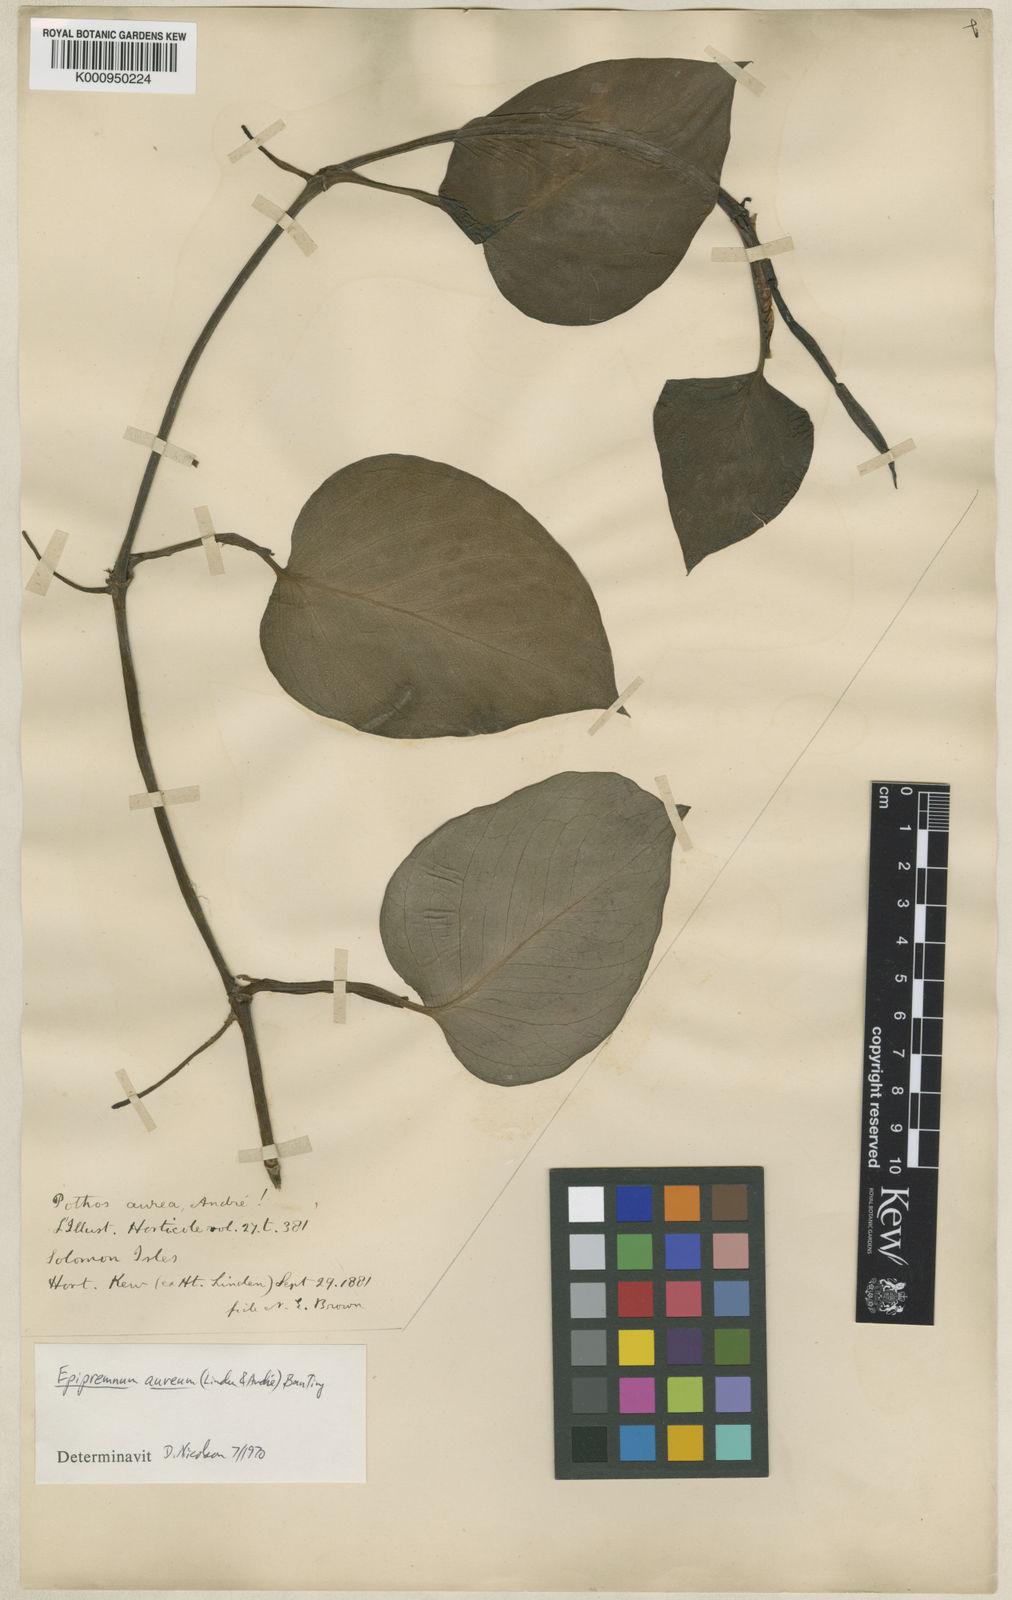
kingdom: Plantae
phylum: Tracheophyta
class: Liliopsida
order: Alismatales
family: Araceae
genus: Epipremnum
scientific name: Epipremnum
